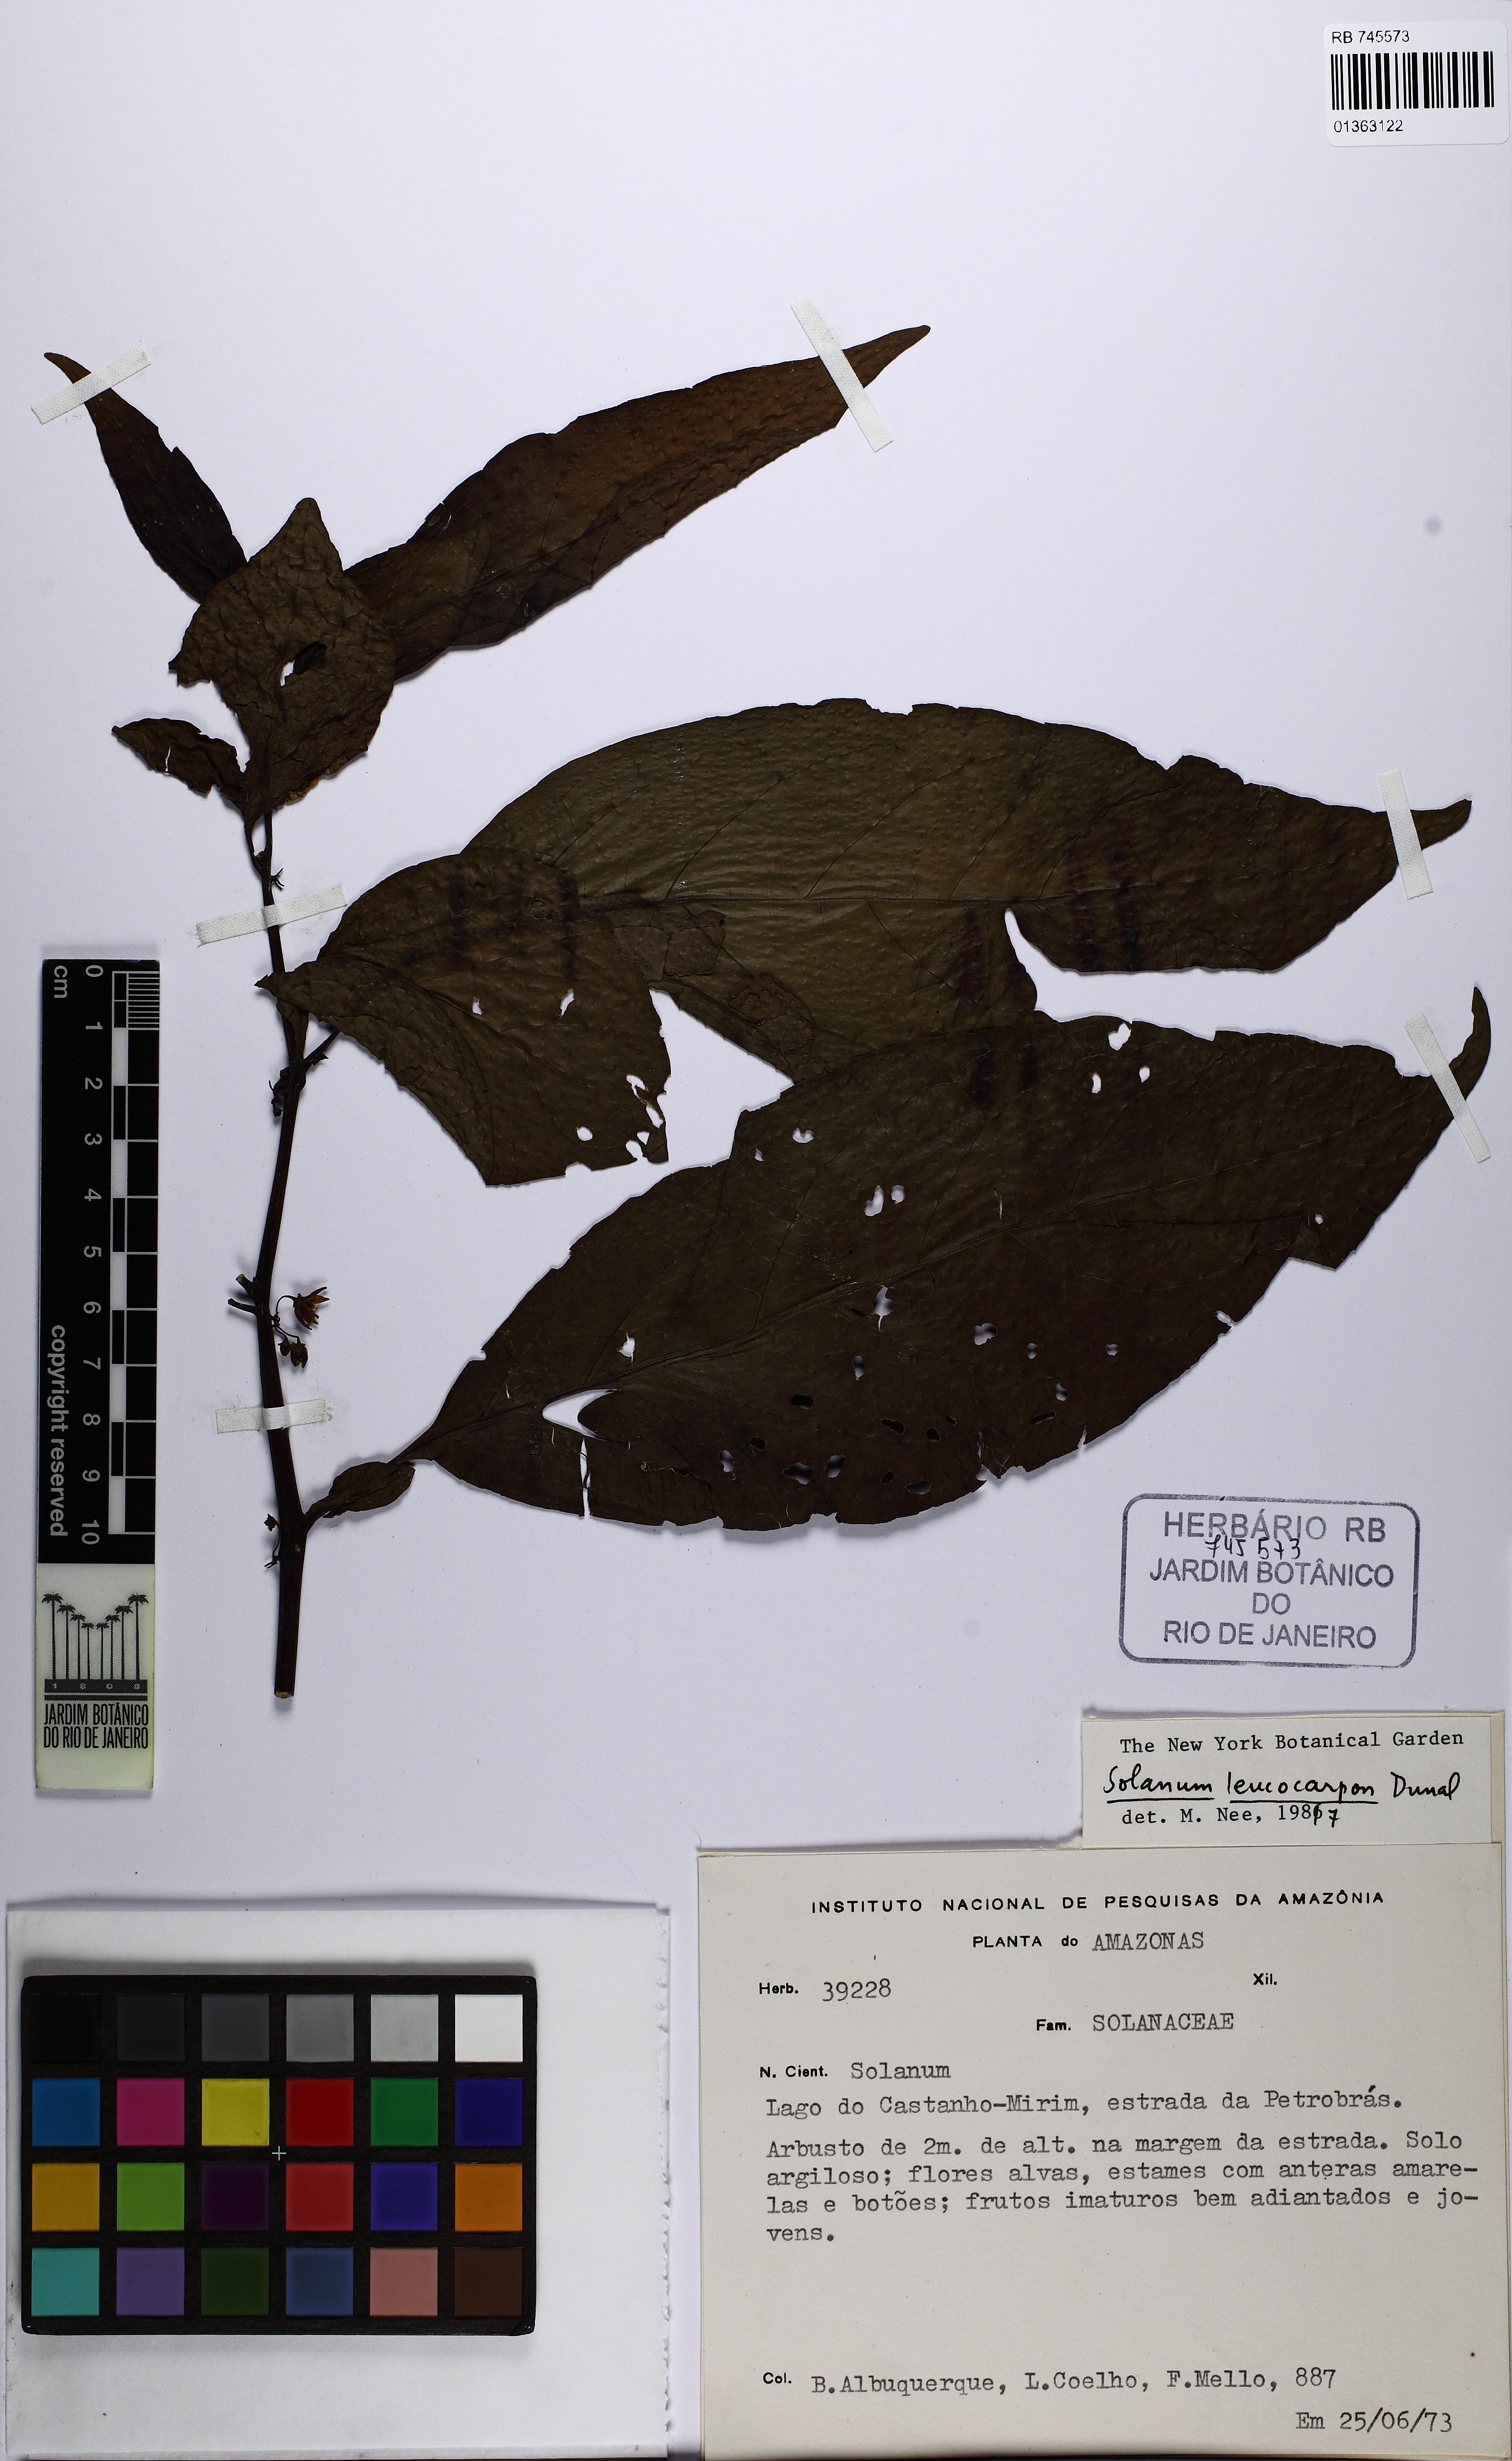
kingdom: Plantae
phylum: Tracheophyta
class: Magnoliopsida
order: Solanales
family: Solanaceae
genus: Solanum
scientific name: Solanum leucocarpon
